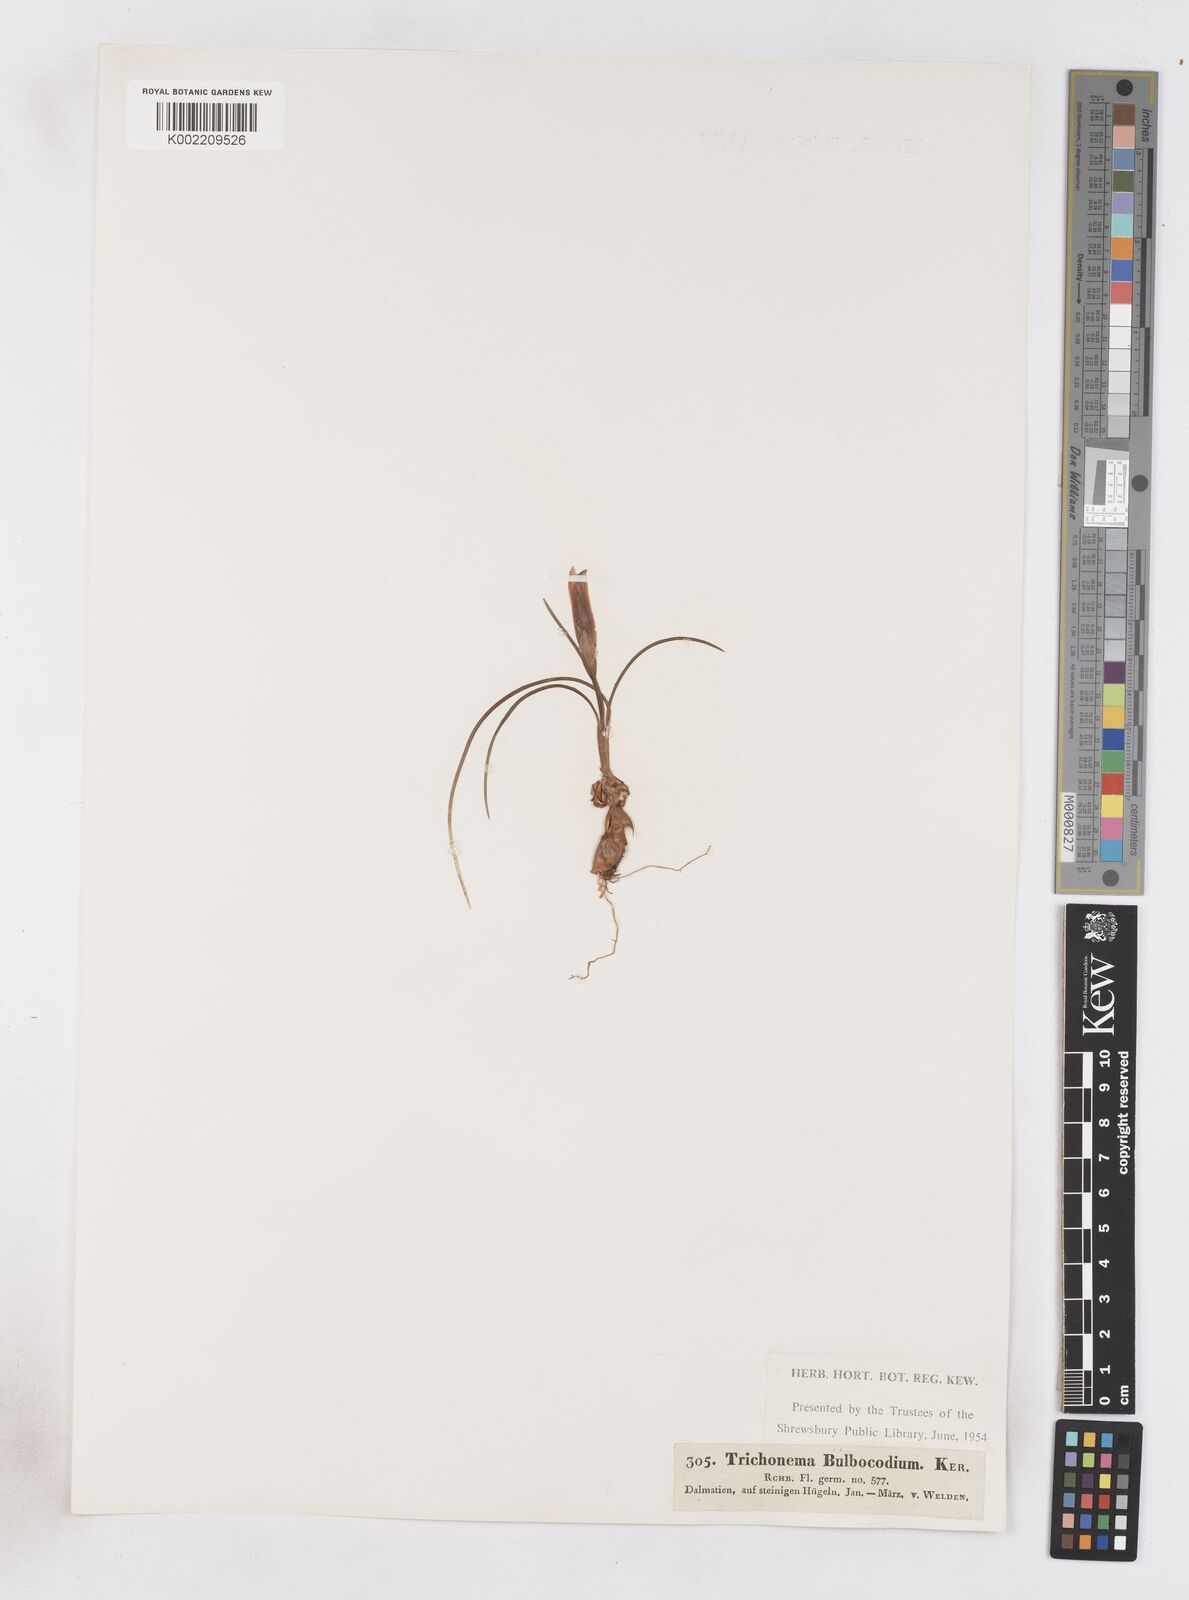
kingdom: Plantae
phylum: Tracheophyta
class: Liliopsida
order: Asparagales
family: Iridaceae
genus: Romulea
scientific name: Romulea bulbocodium
